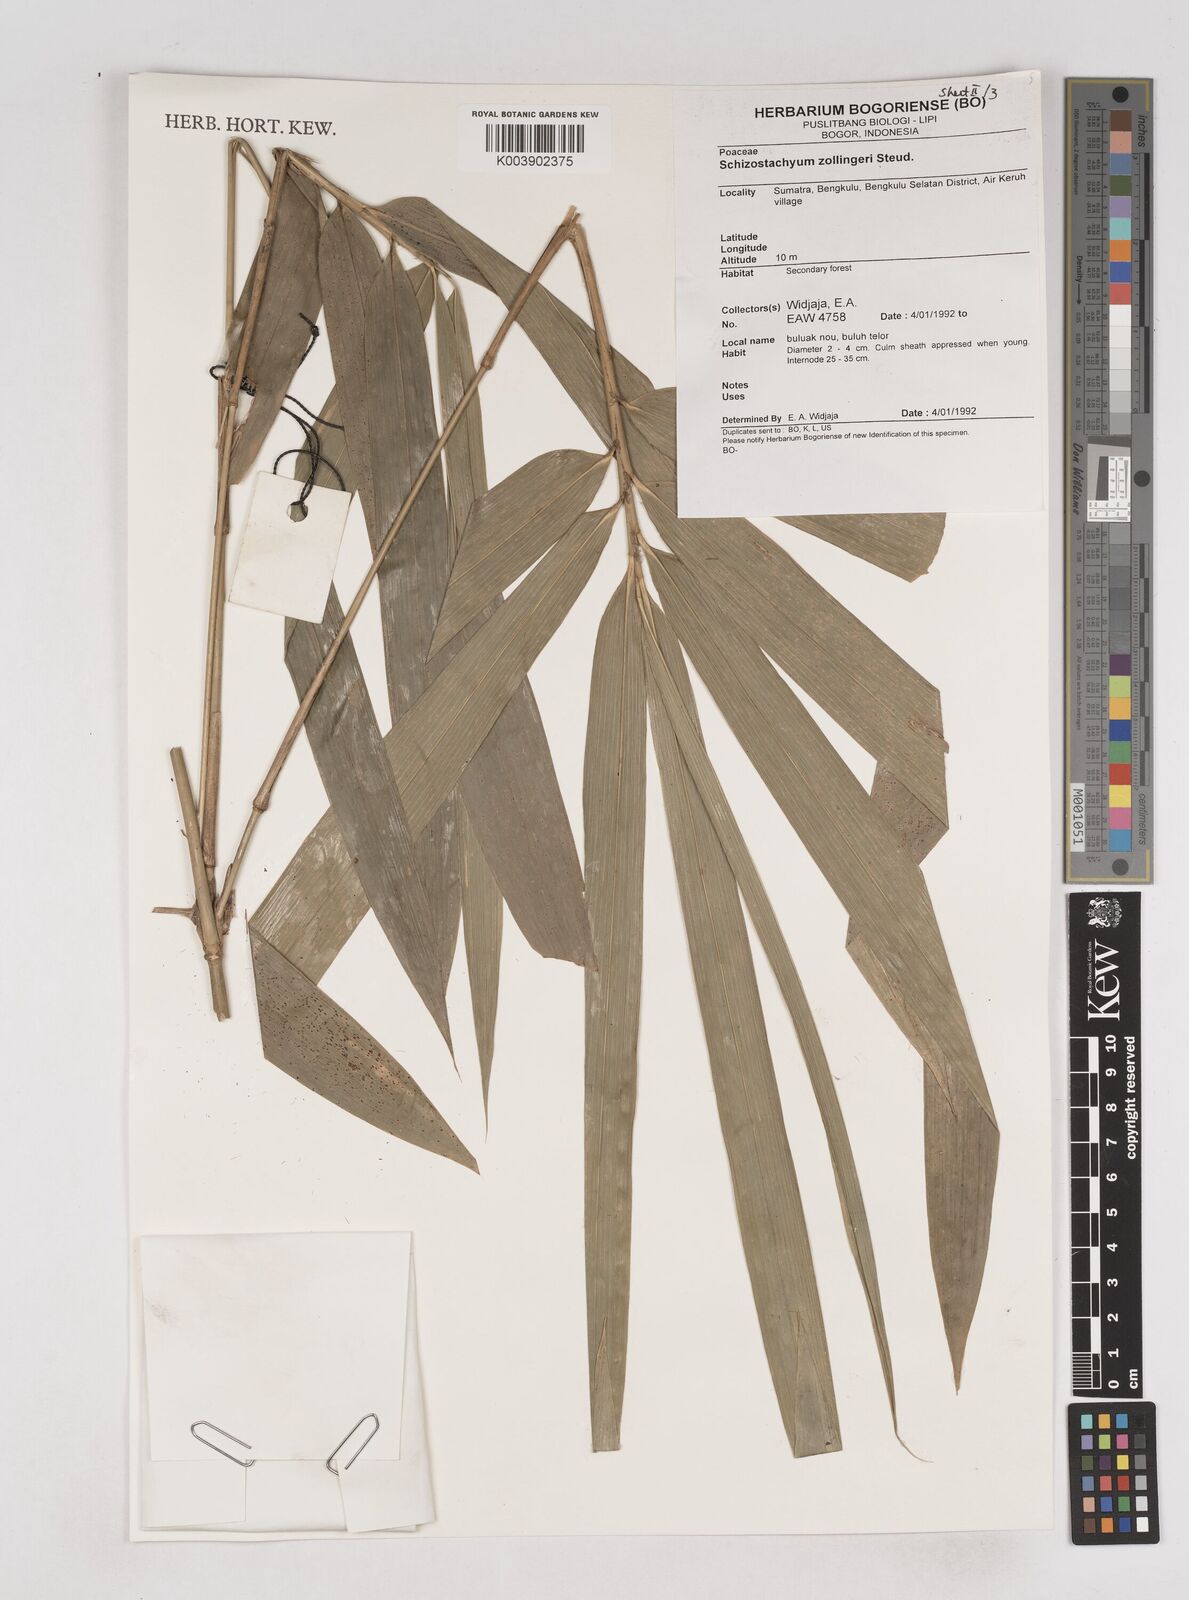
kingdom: Plantae
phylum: Tracheophyta
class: Liliopsida
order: Poales
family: Poaceae
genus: Schizostachyum
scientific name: Schizostachyum zollingeri
